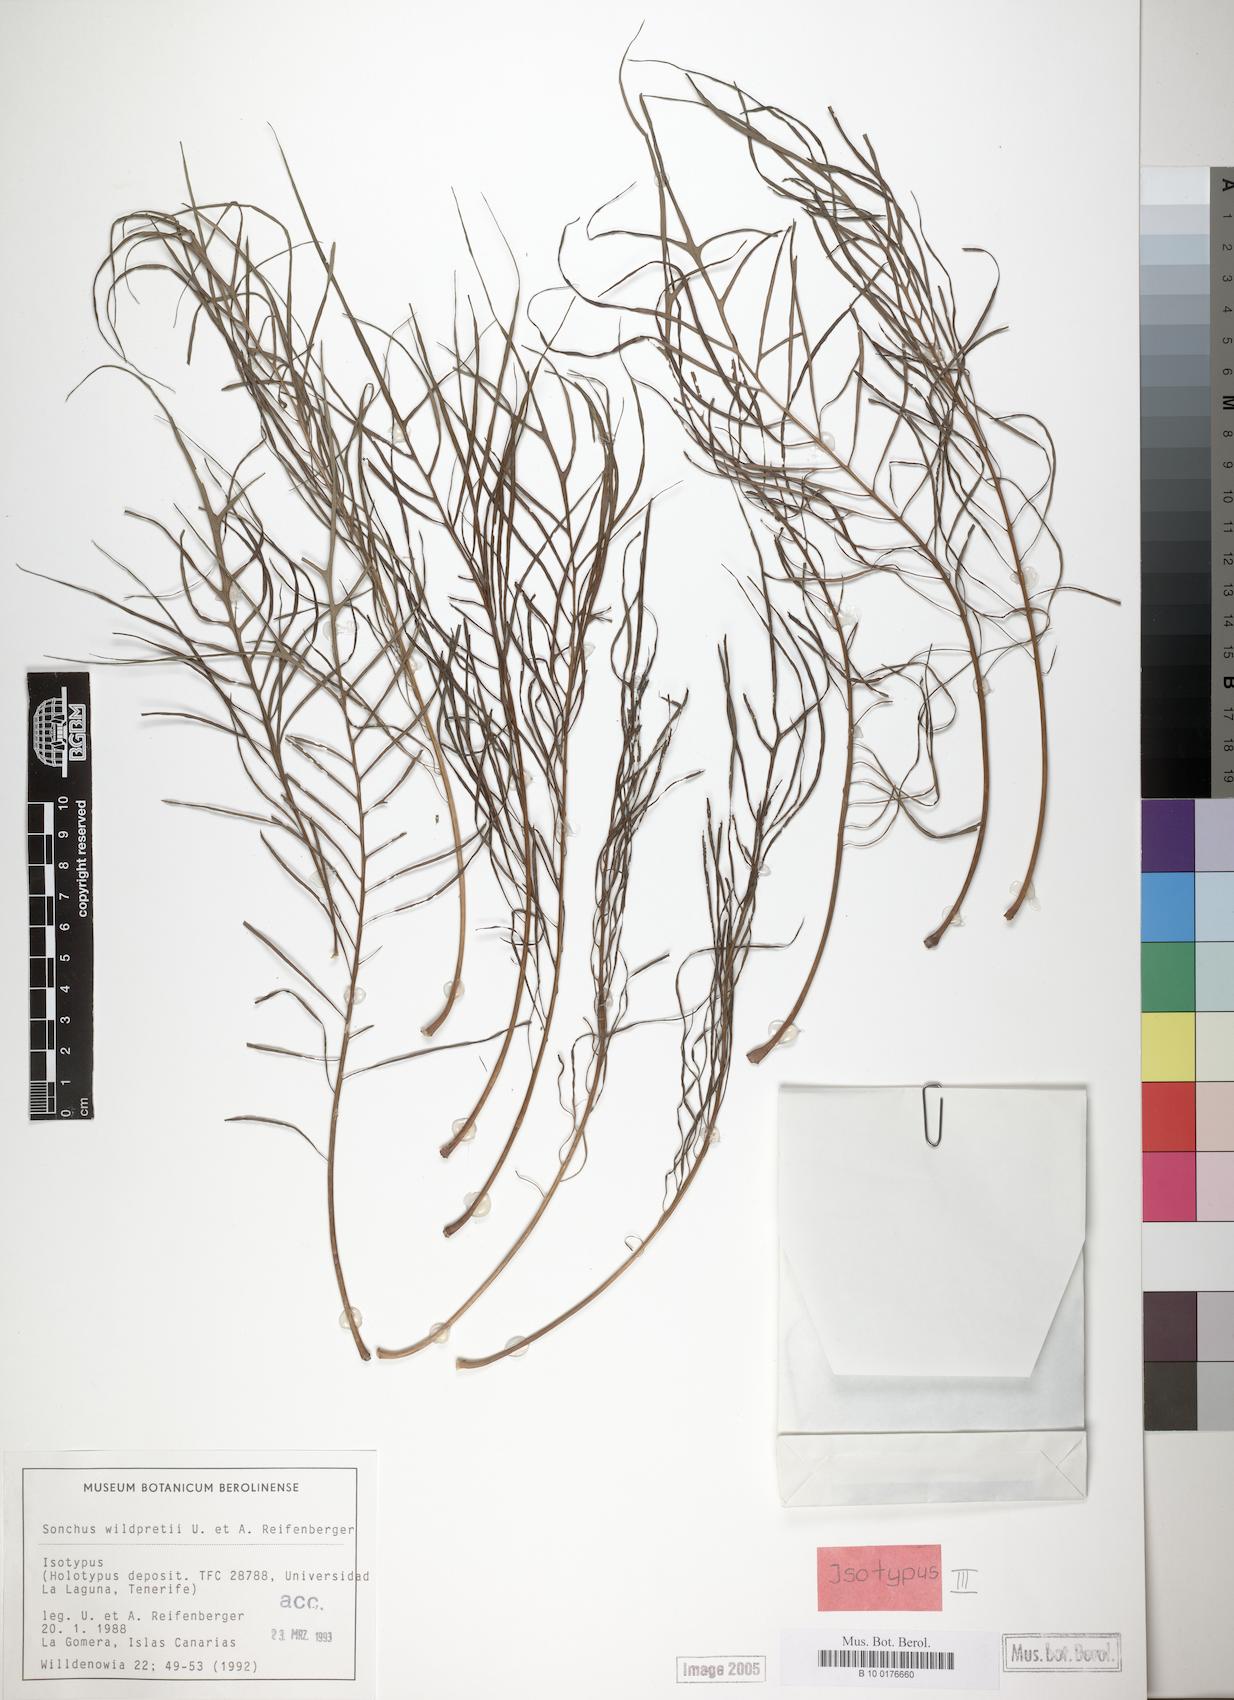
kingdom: Plantae
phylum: Tracheophyta
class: Magnoliopsida
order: Asterales
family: Asteraceae
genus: Sonchus
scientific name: Sonchus wildpretii
